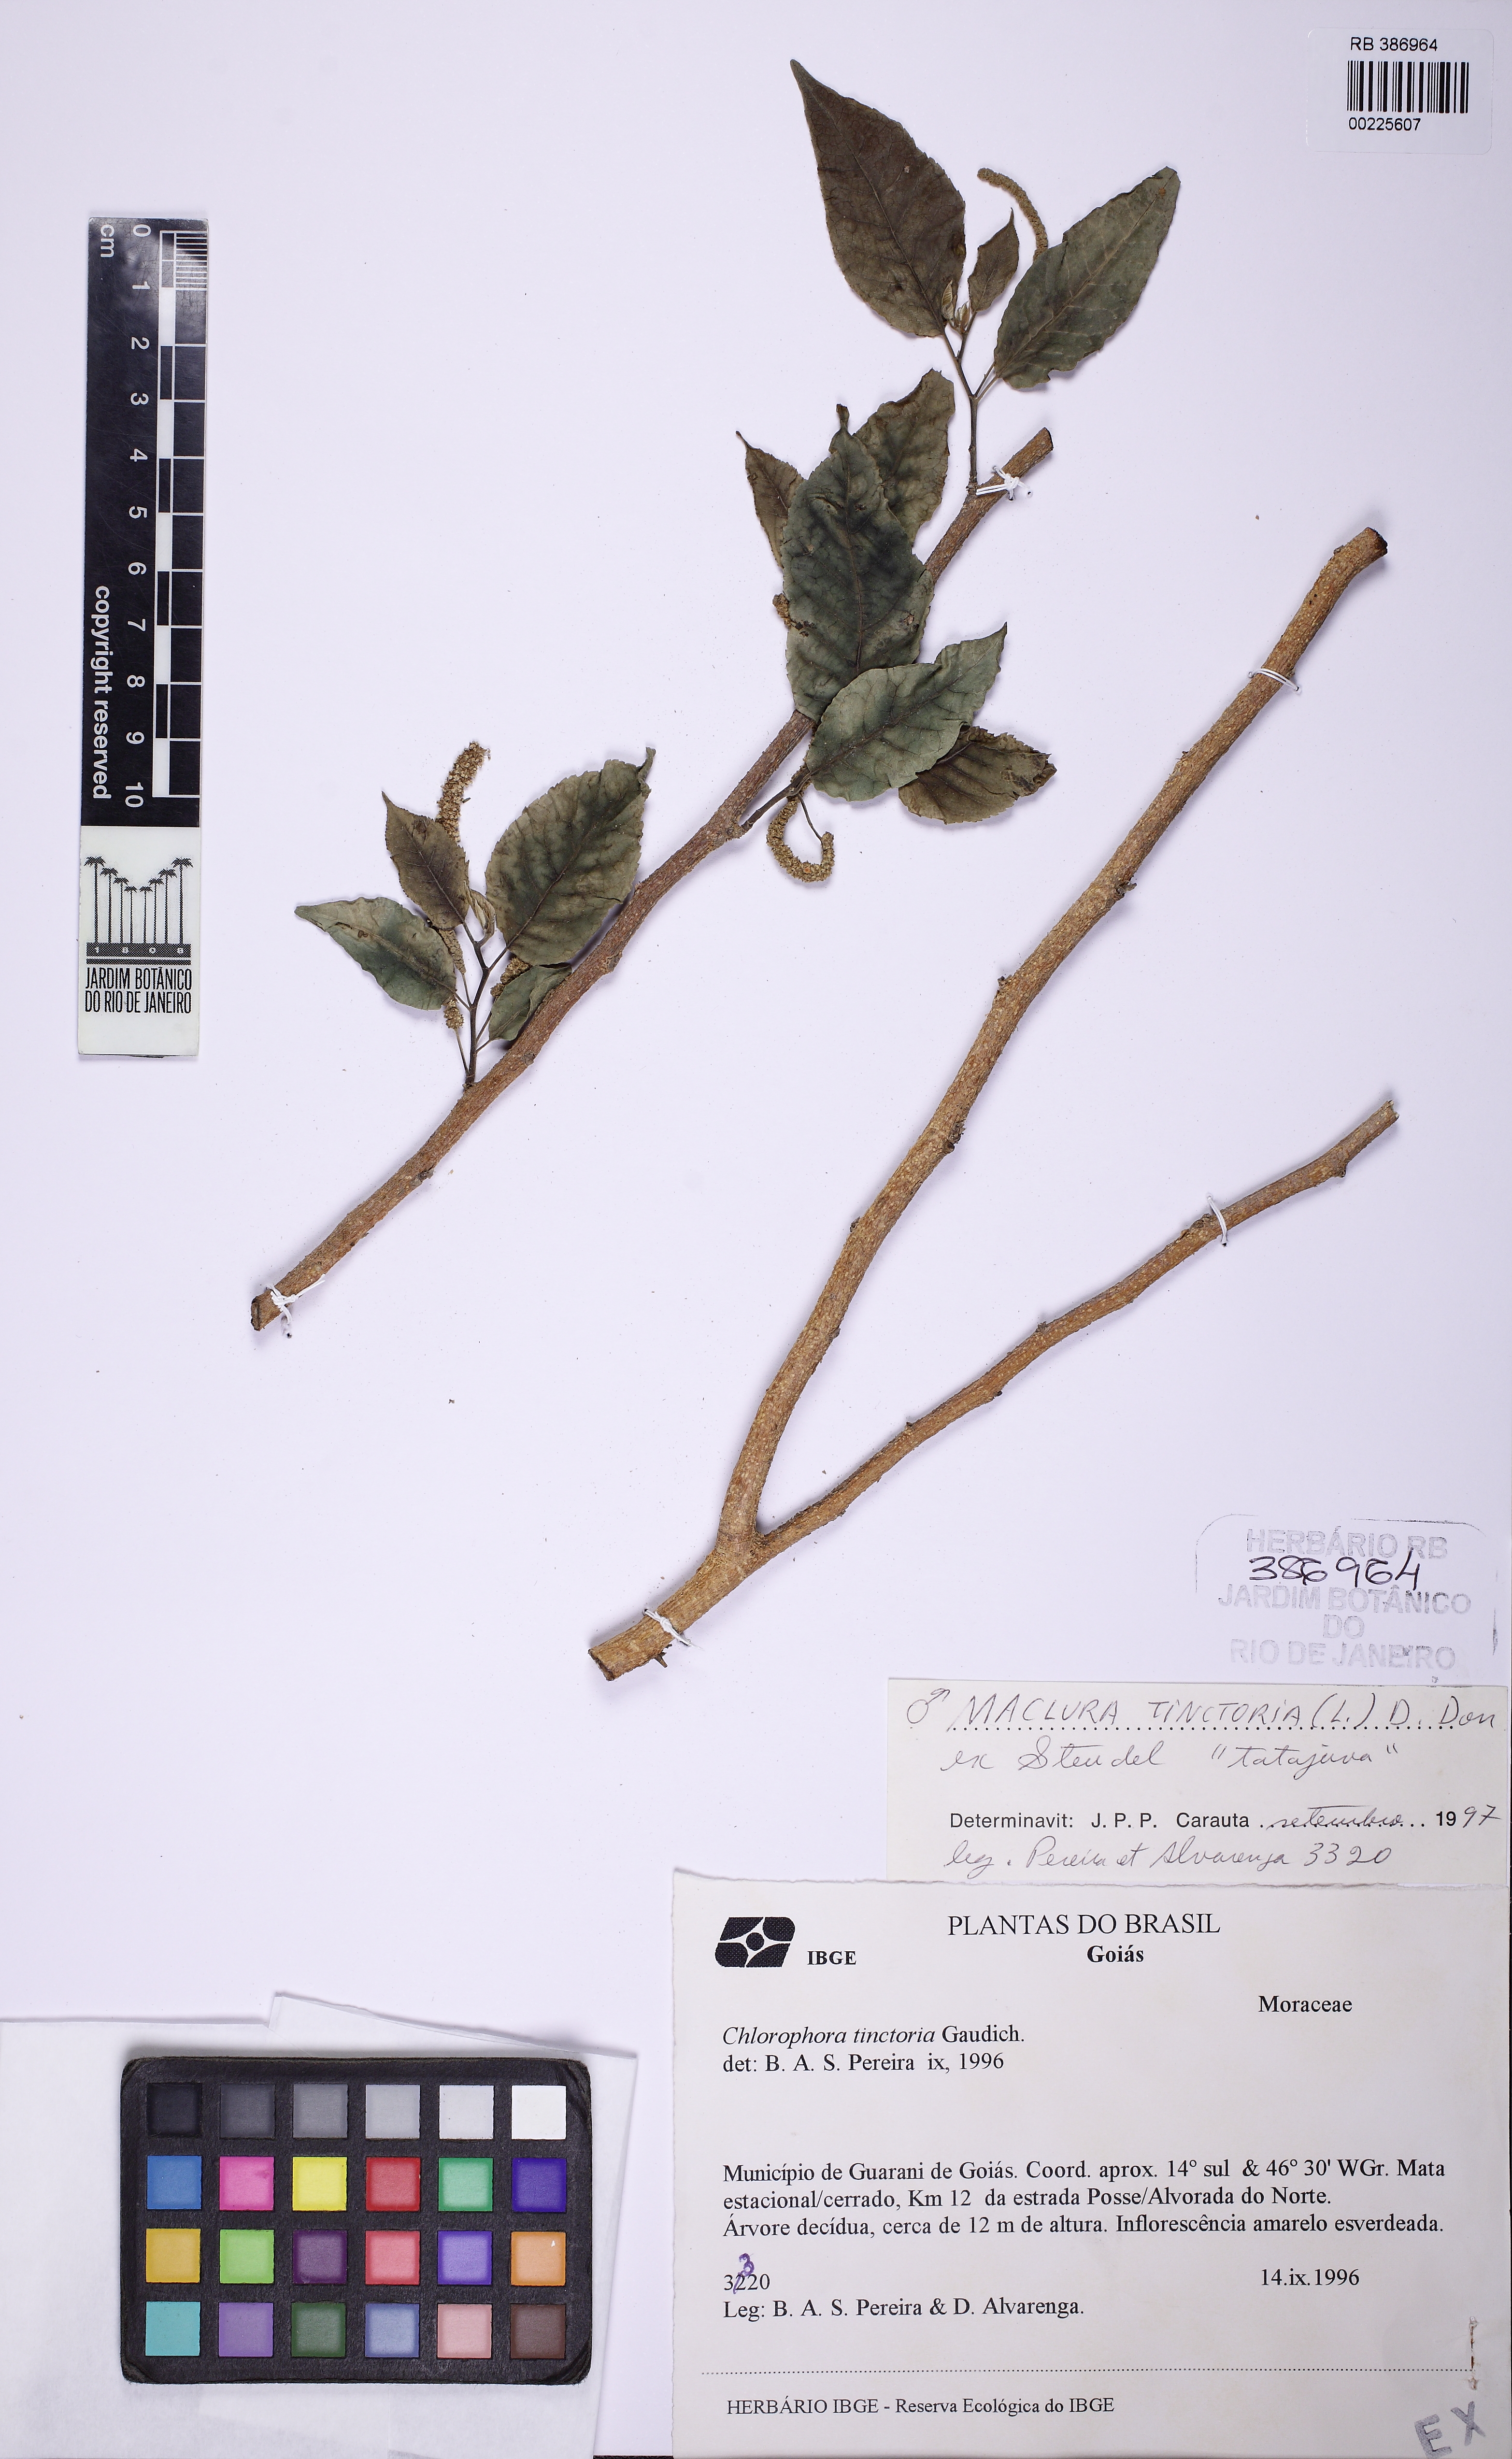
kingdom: Plantae
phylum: Tracheophyta
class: Magnoliopsida
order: Rosales
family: Moraceae
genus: Maclura
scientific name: Maclura tinctoria
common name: Old fustic
